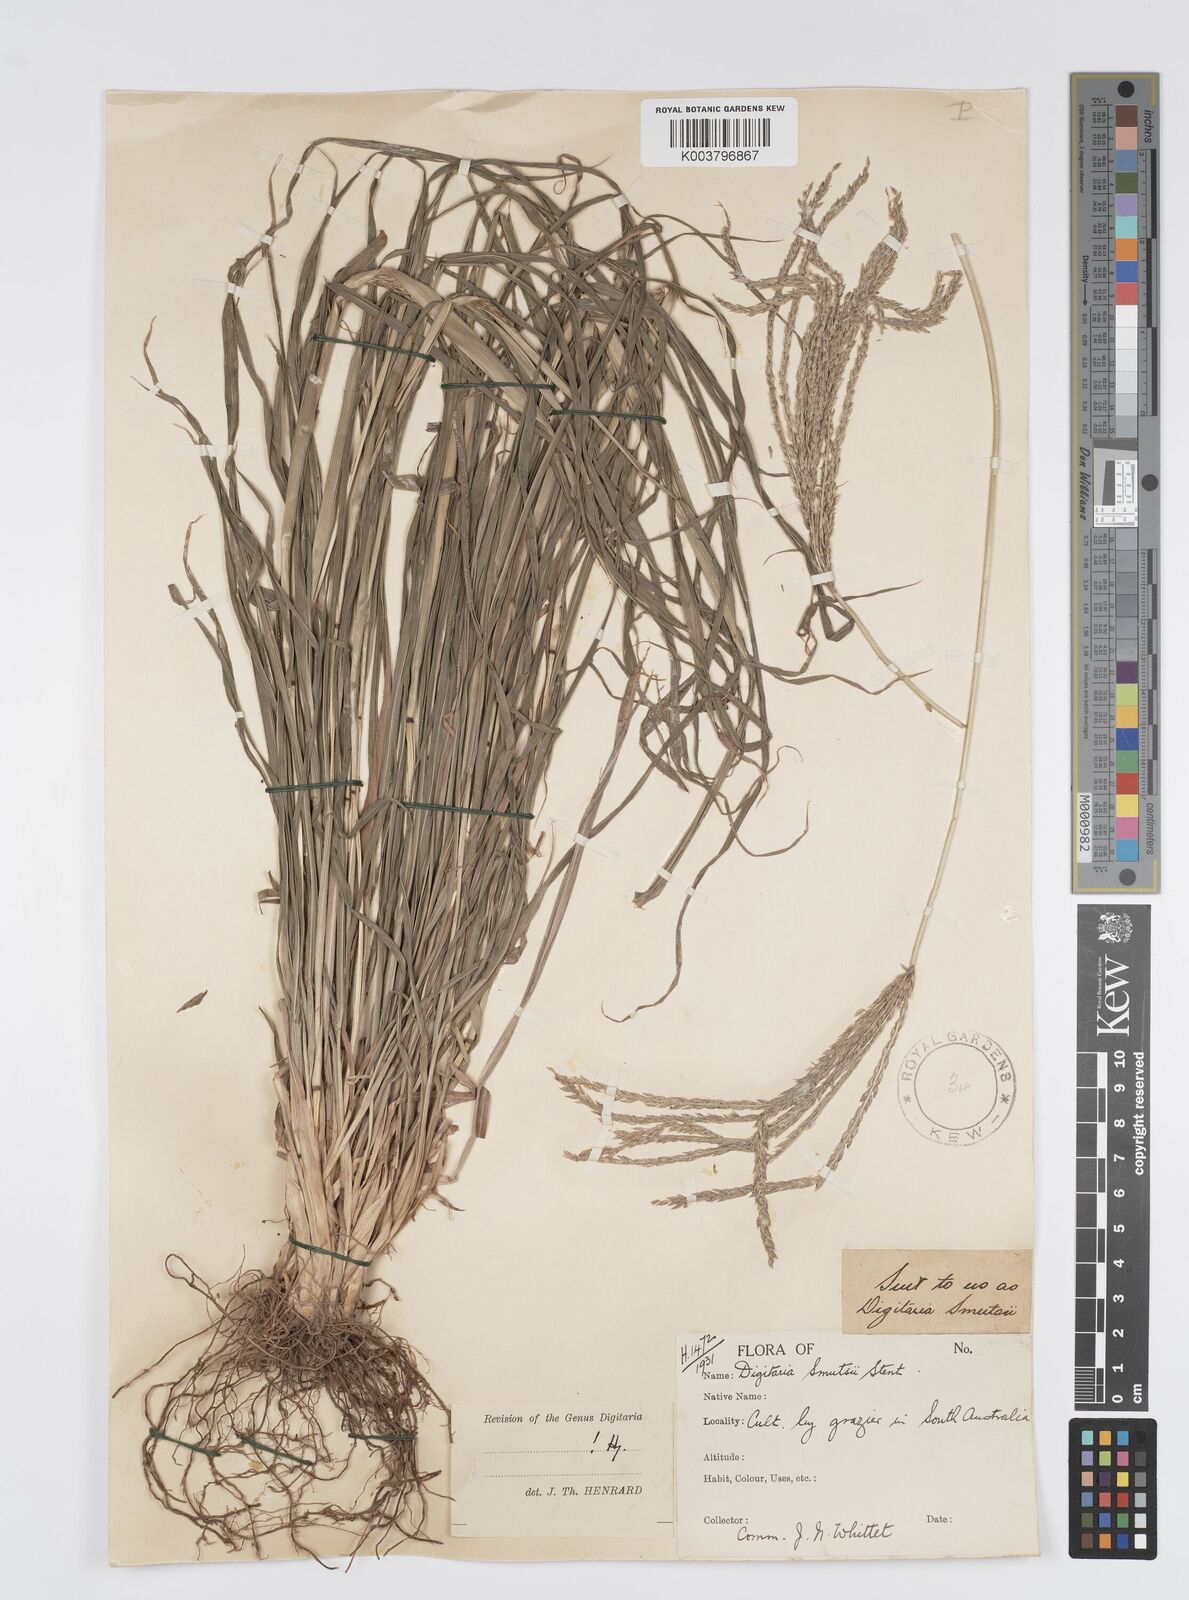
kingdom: Plantae
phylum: Tracheophyta
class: Liliopsida
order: Poales
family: Poaceae
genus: Digitaria
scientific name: Digitaria eriantha
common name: Digitgrass
